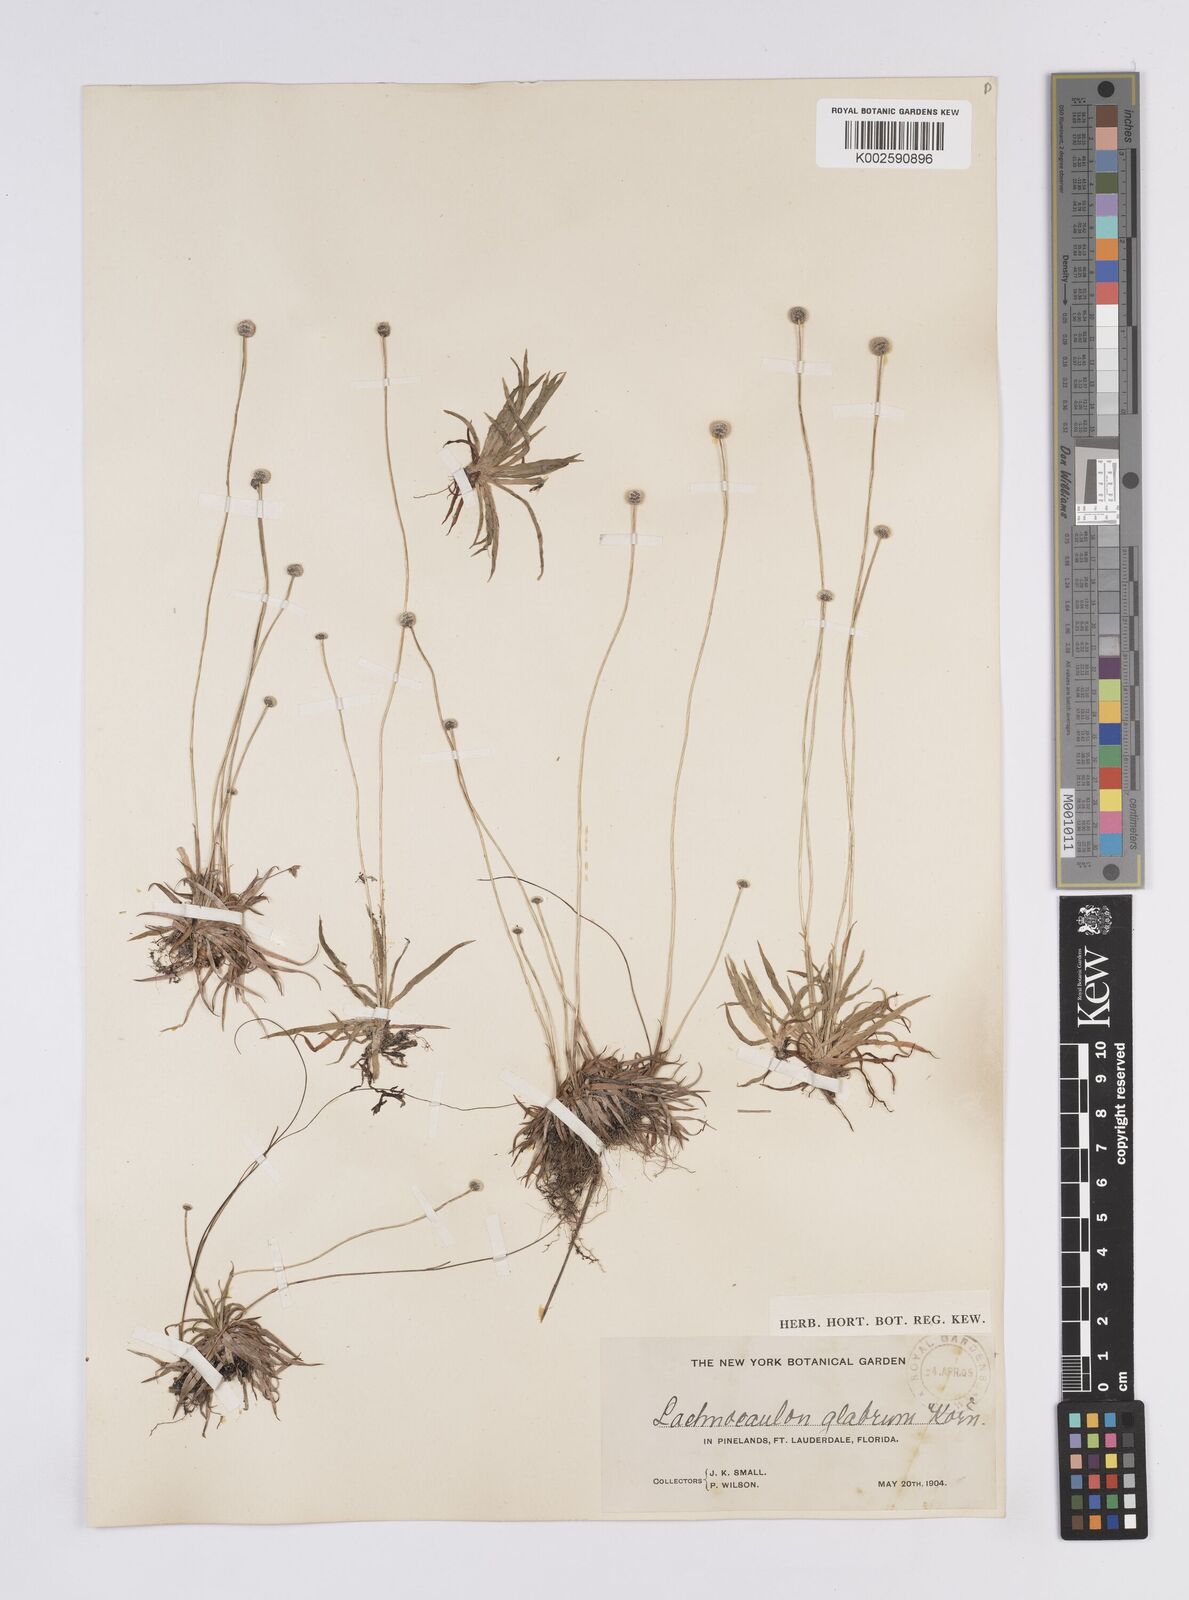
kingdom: Plantae
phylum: Tracheophyta
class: Liliopsida
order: Poales
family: Eriocaulaceae
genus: Paepalanthus
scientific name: Paepalanthus anceps
